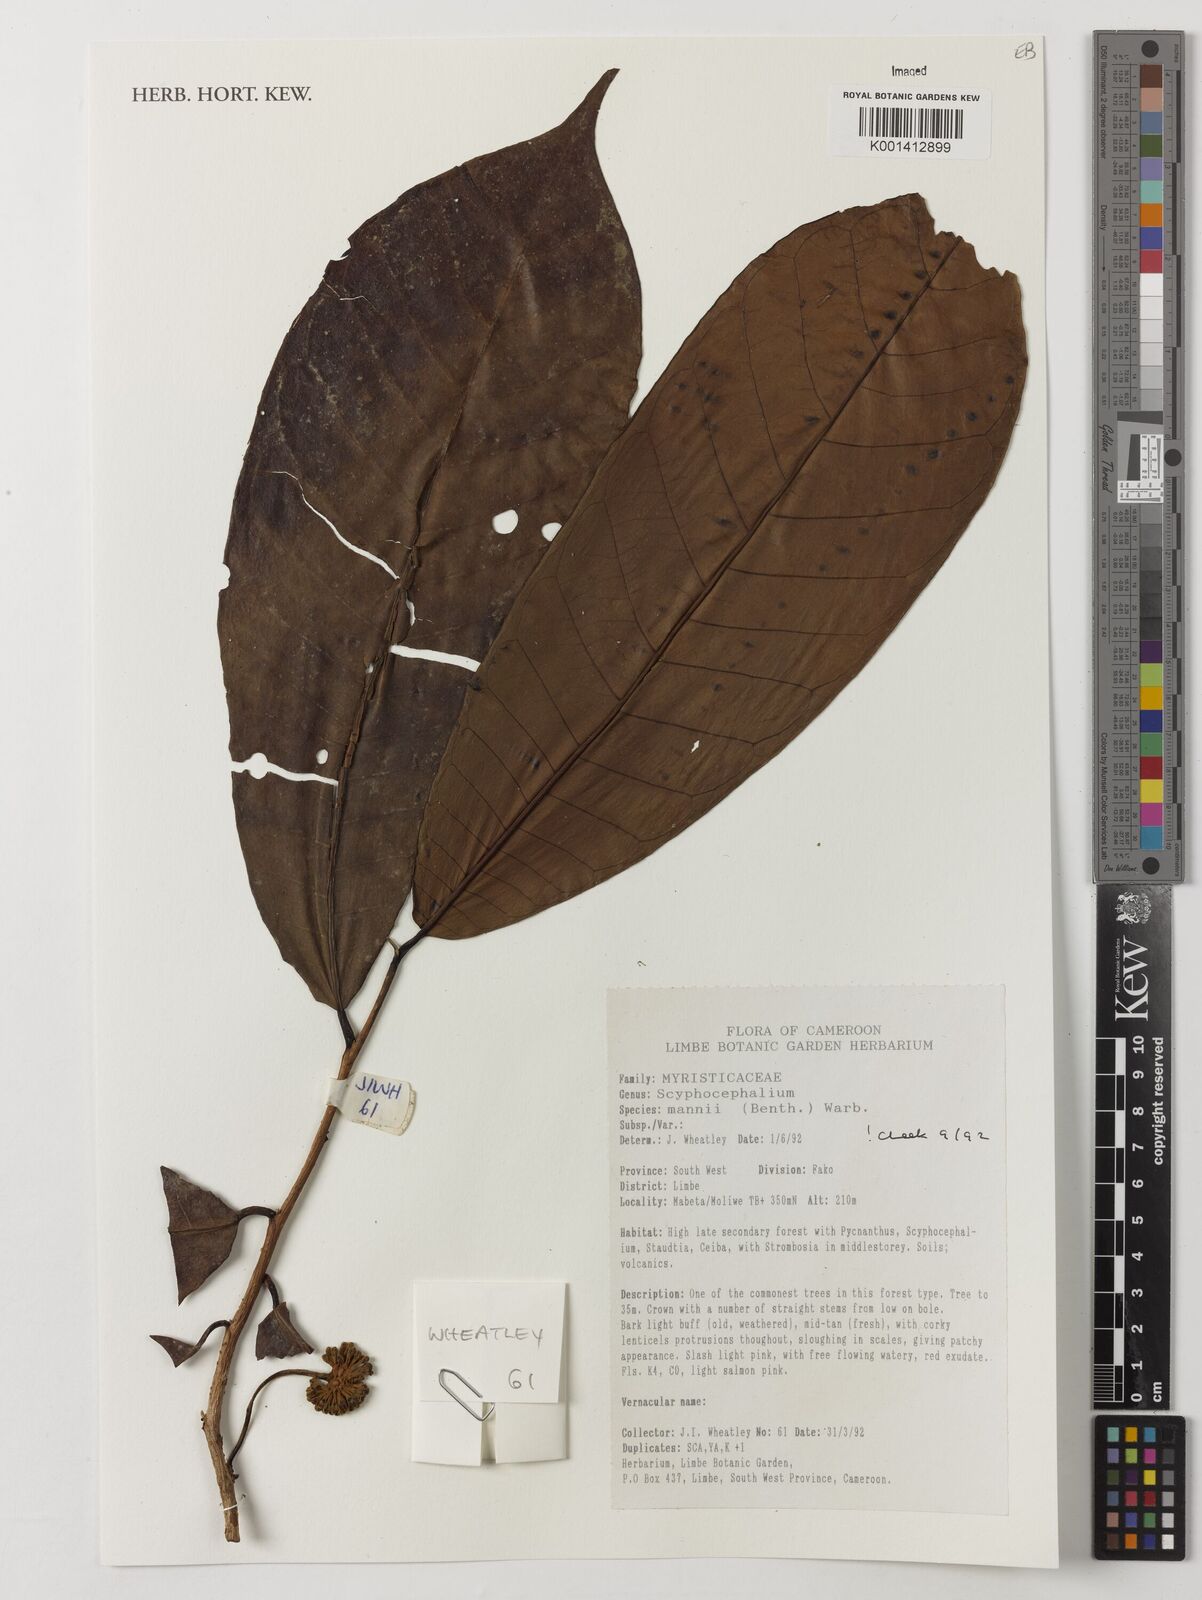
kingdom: Plantae
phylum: Tracheophyta
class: Magnoliopsida
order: Magnoliales
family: Myristicaceae
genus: Scyphocephalum
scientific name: Scyphocephalum mannii
